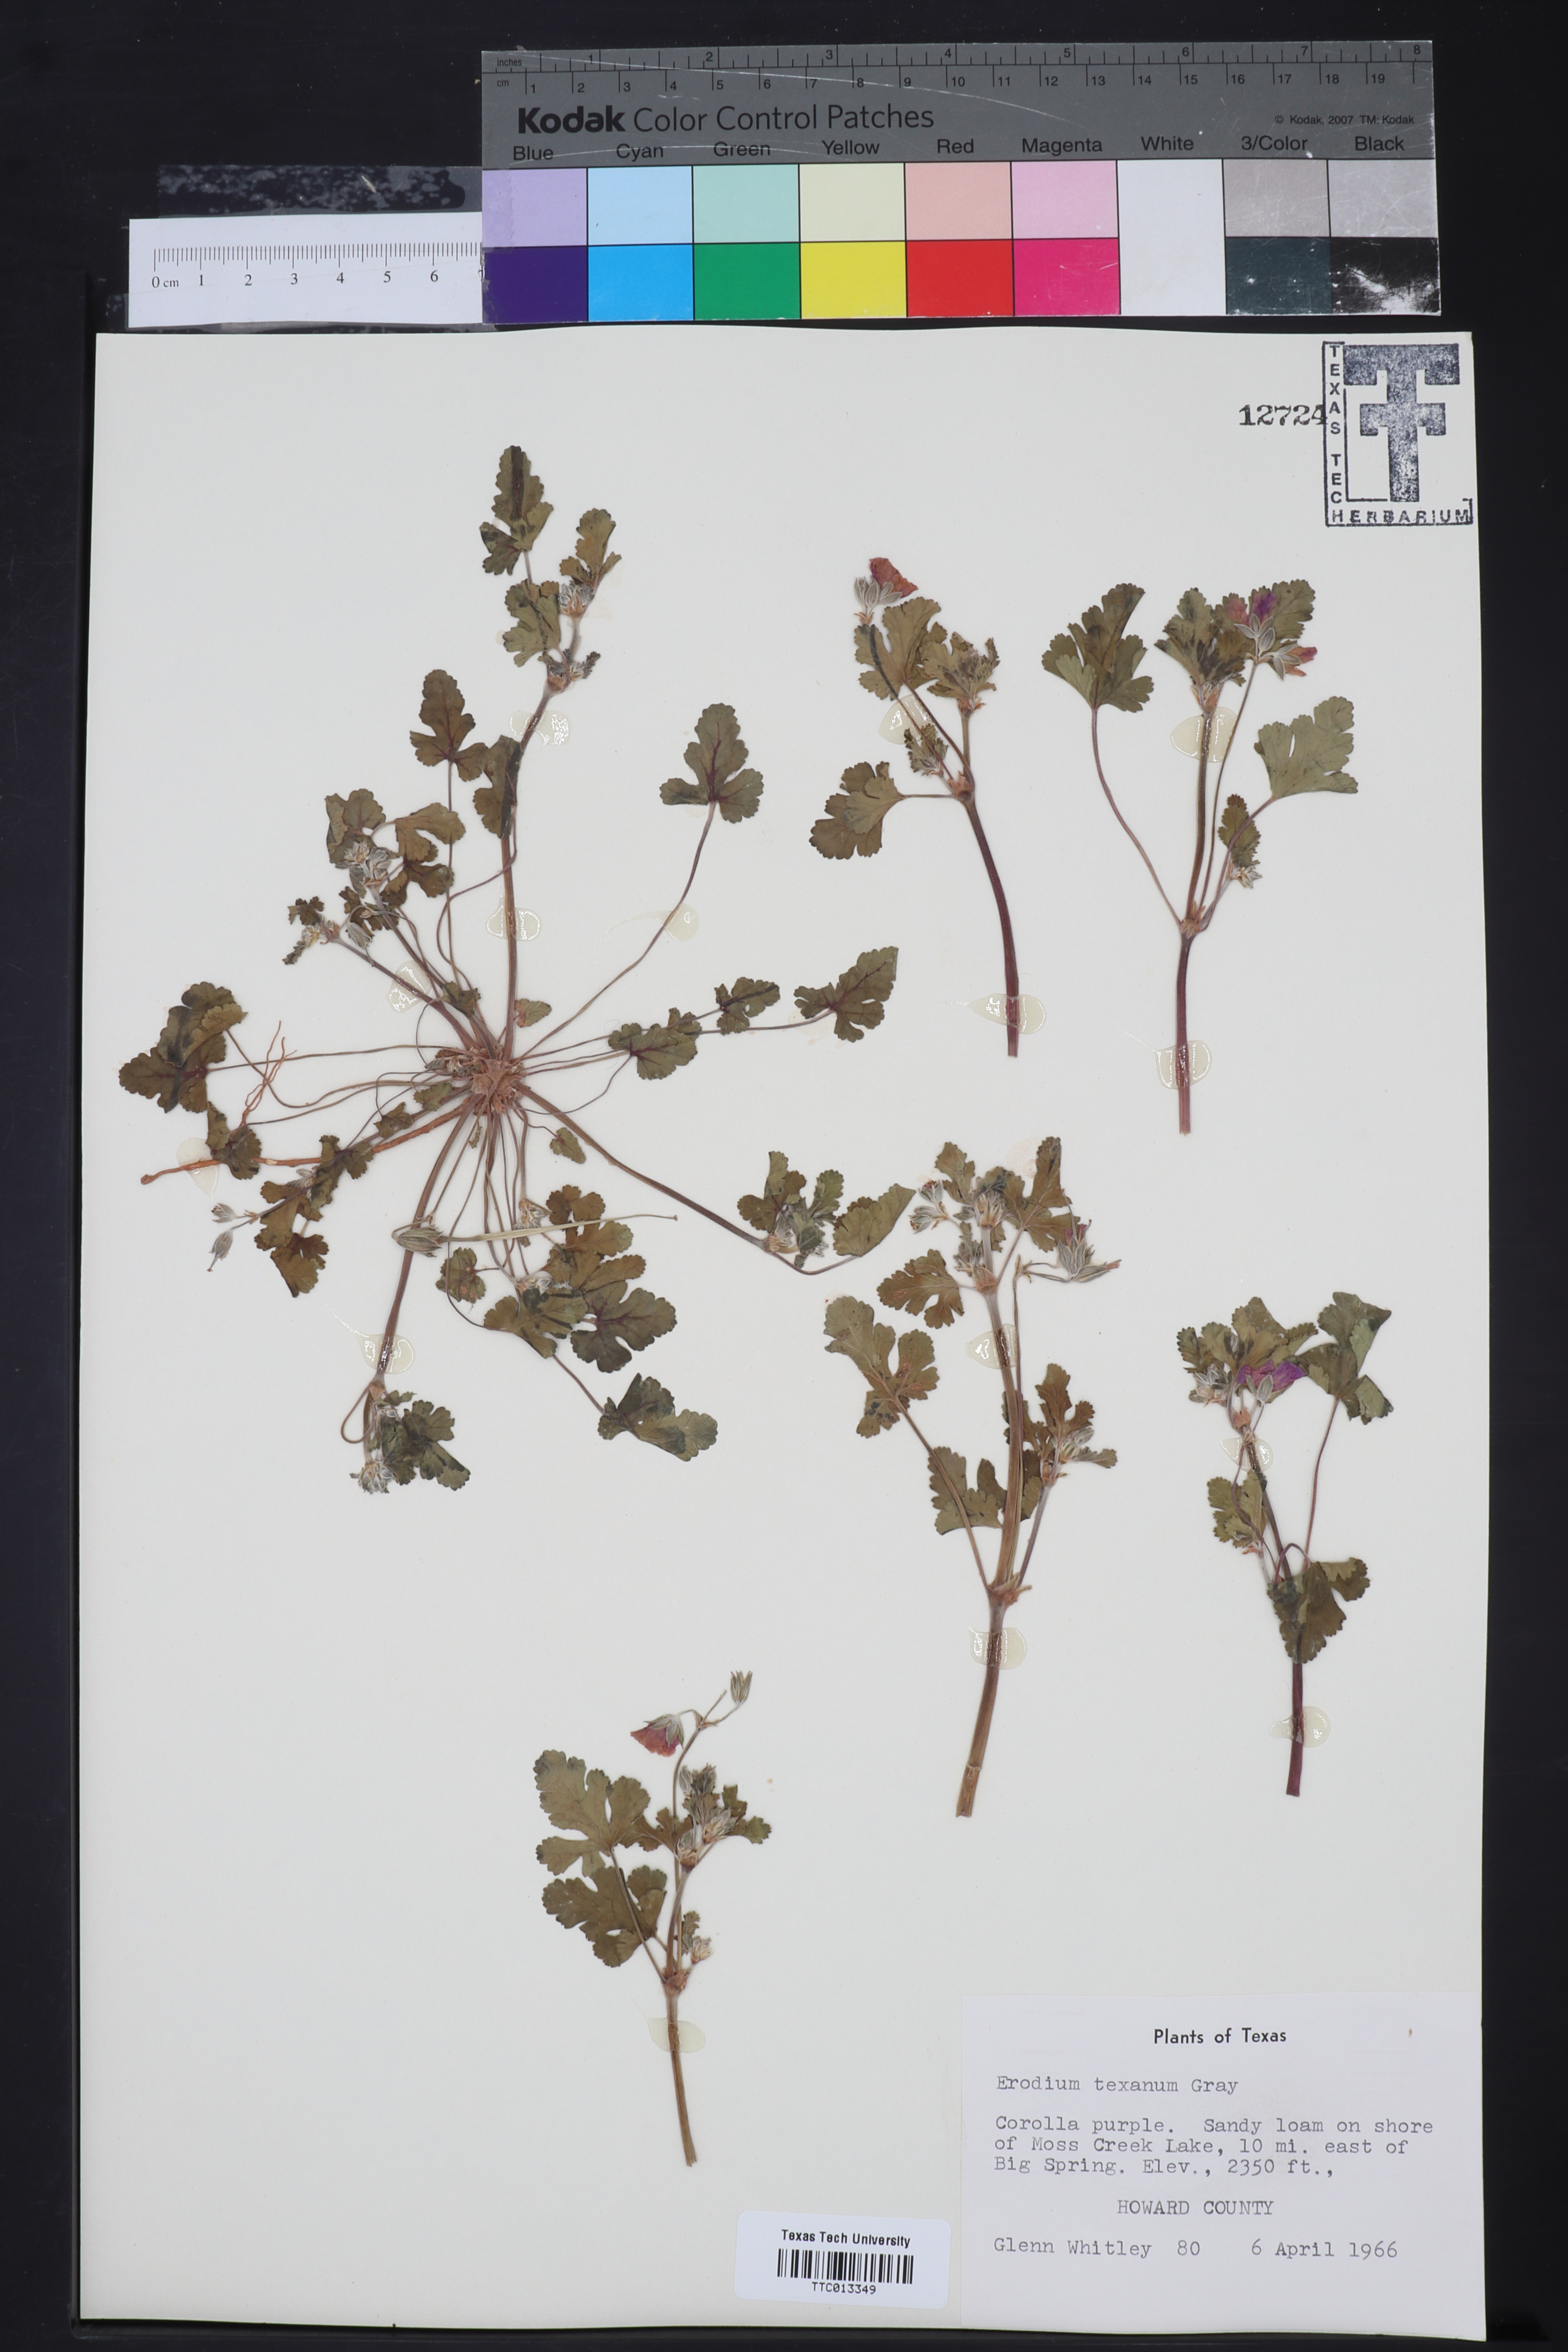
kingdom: Plantae
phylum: Tracheophyta
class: Magnoliopsida
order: Geraniales
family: Geraniaceae
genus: Erodium
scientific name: Erodium texanum
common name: Texas stork's-bill
